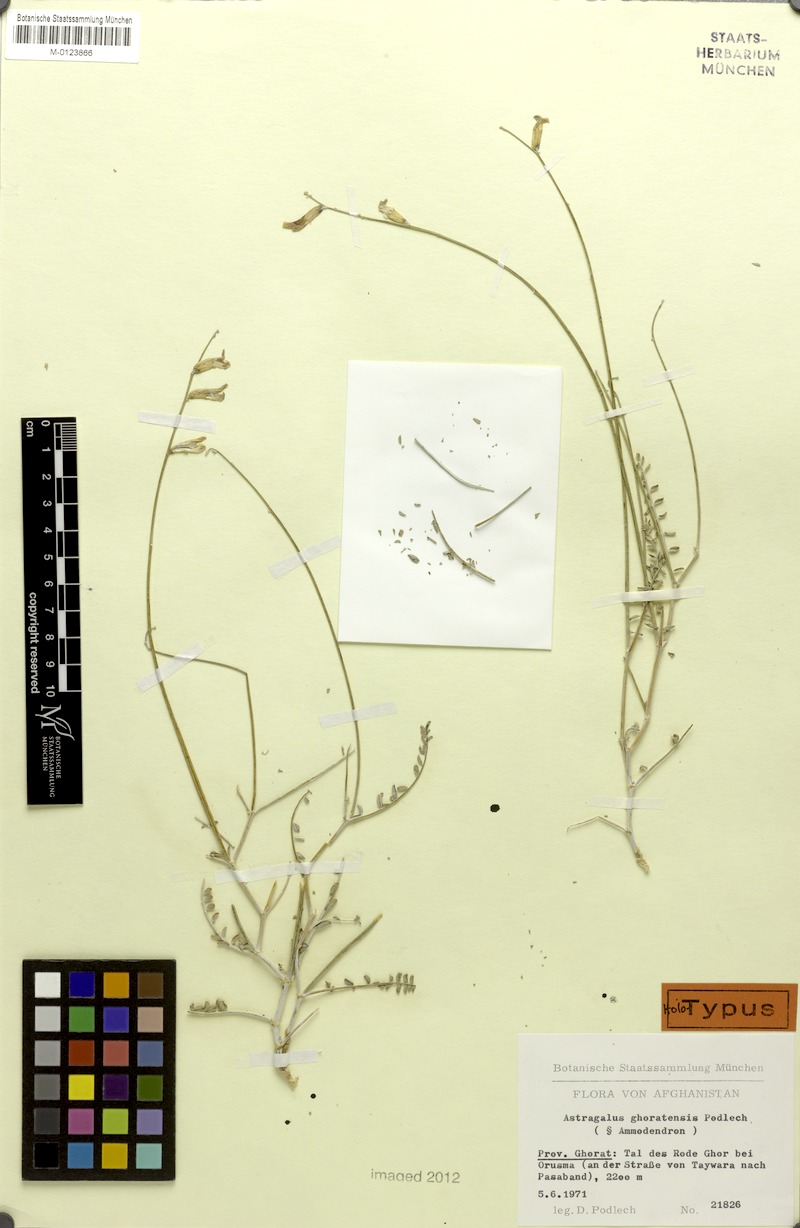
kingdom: Plantae
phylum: Tracheophyta
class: Magnoliopsida
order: Fabales
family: Fabaceae
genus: Astragalus
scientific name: Astragalus ghoratensis
